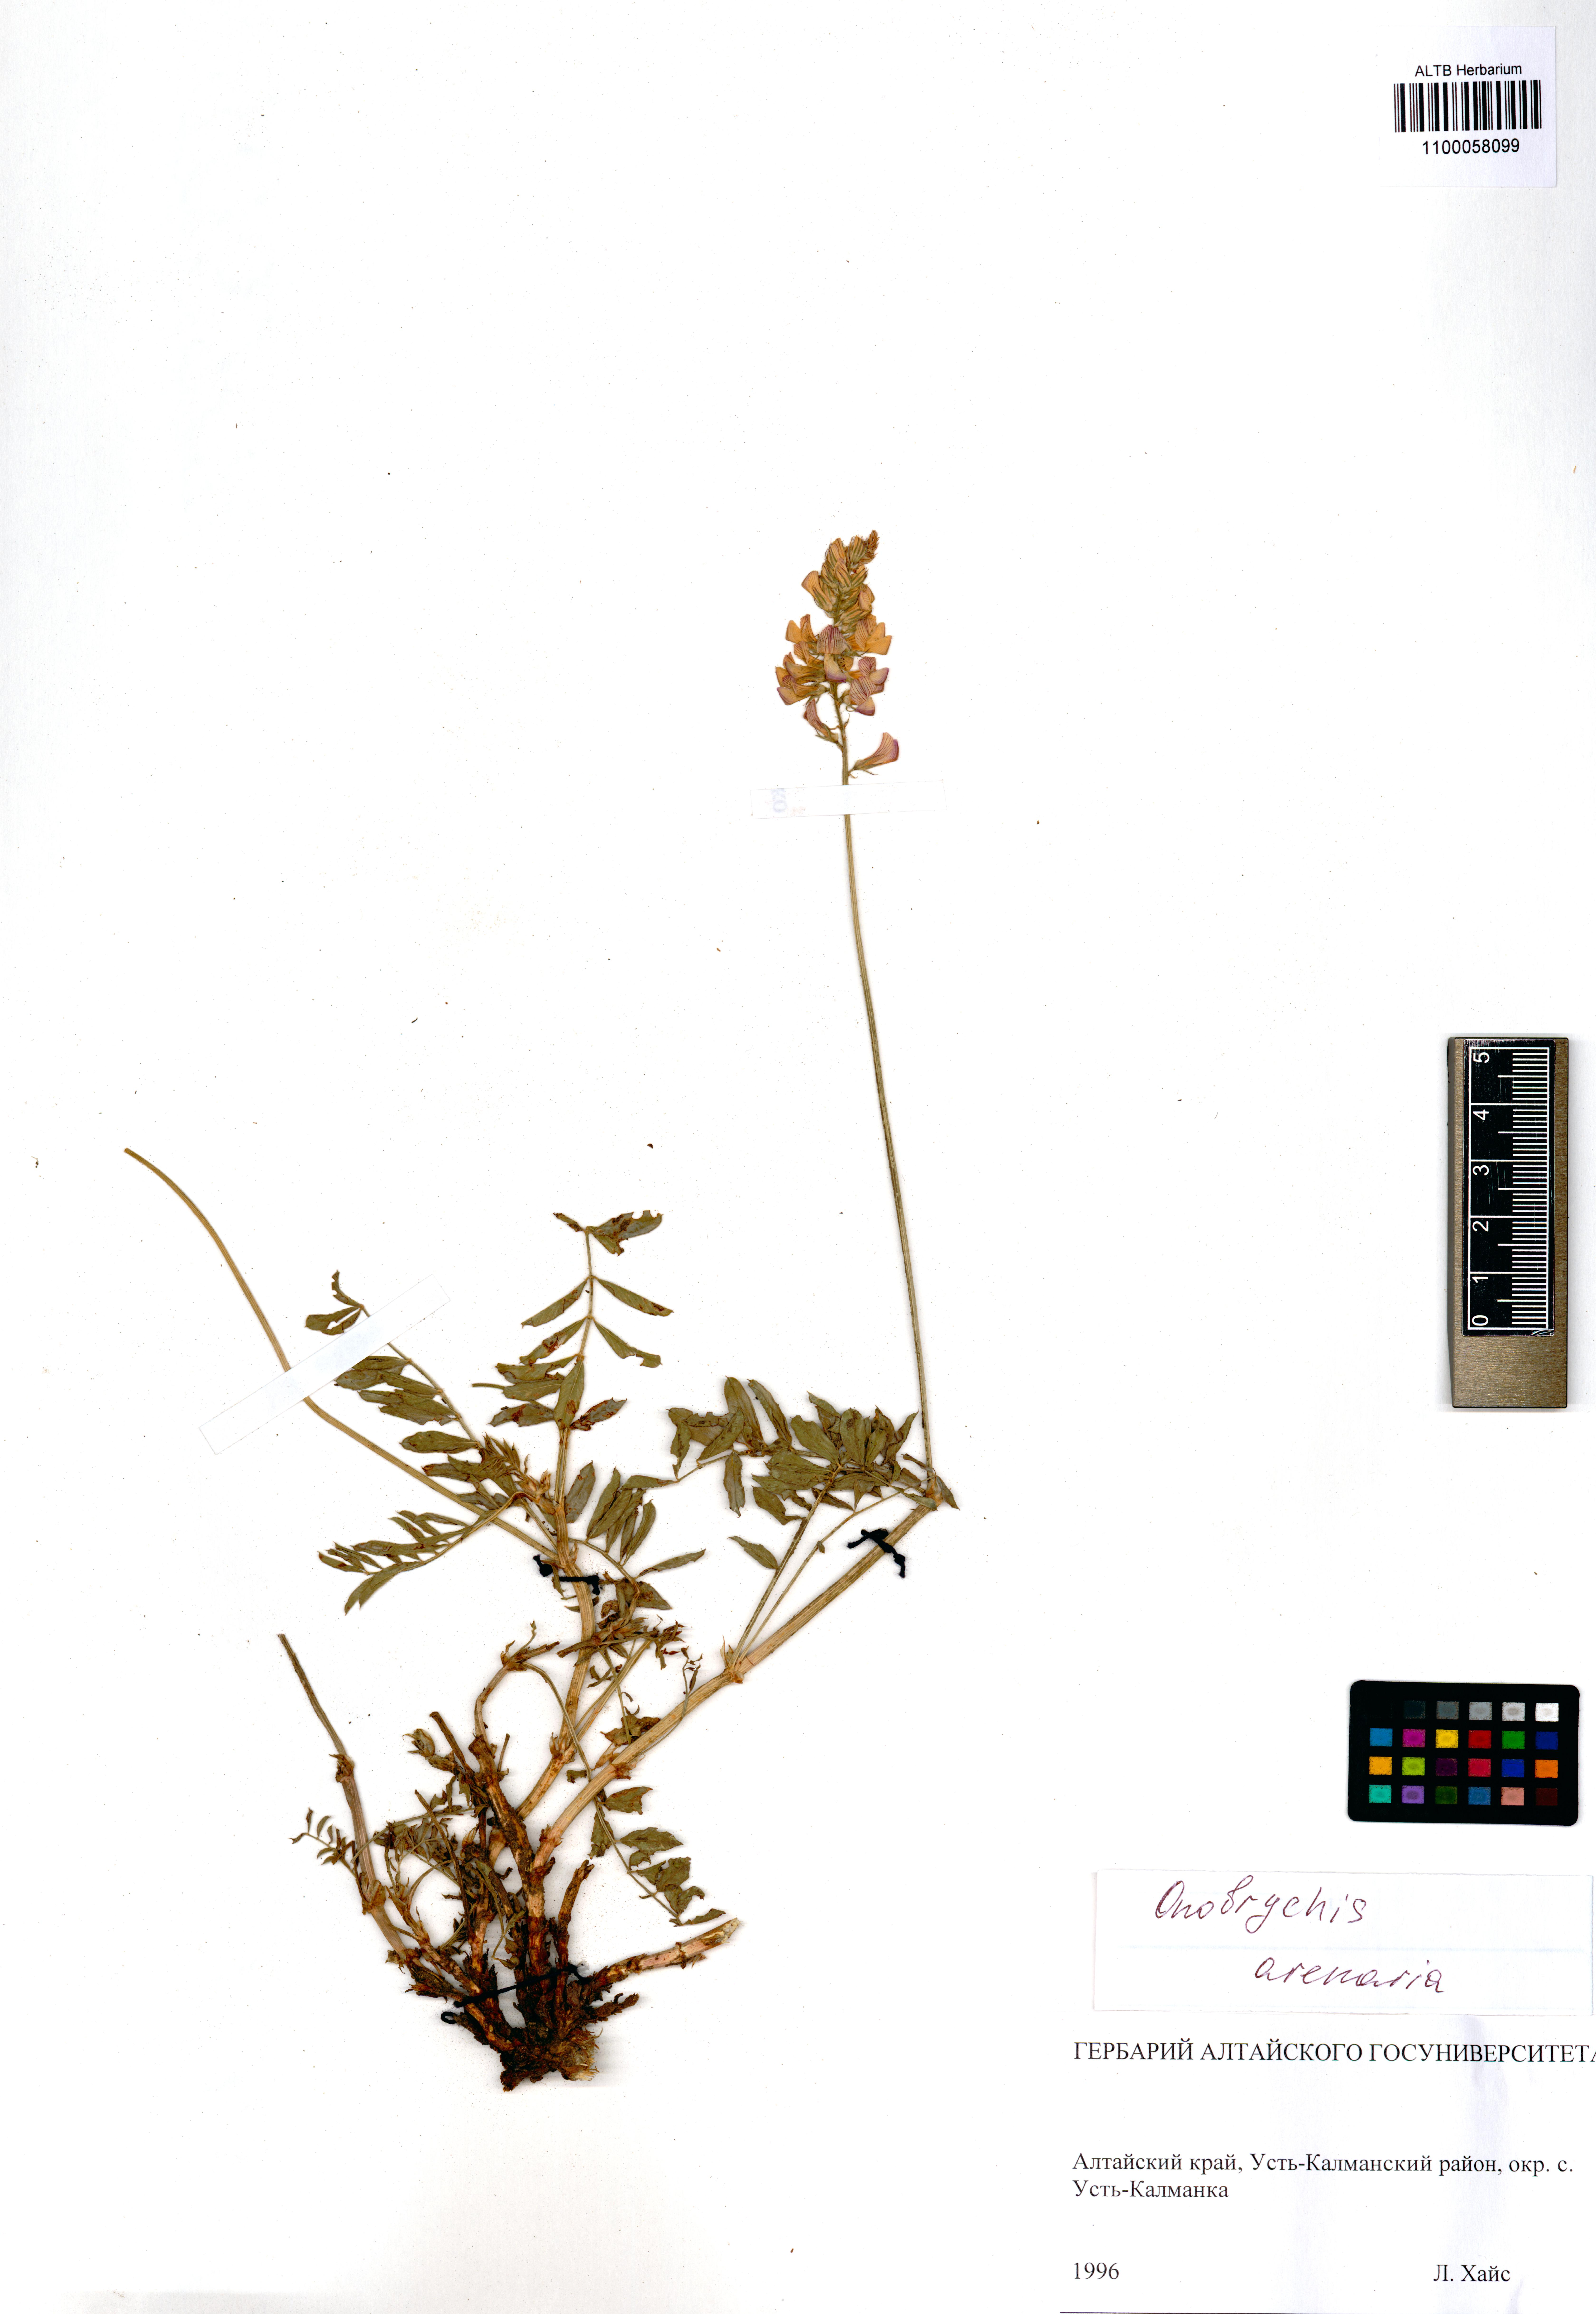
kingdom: Plantae
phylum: Tracheophyta
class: Magnoliopsida
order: Fabales
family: Fabaceae
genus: Onobrychis
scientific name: Onobrychis arenaria
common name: Sand esparcet
